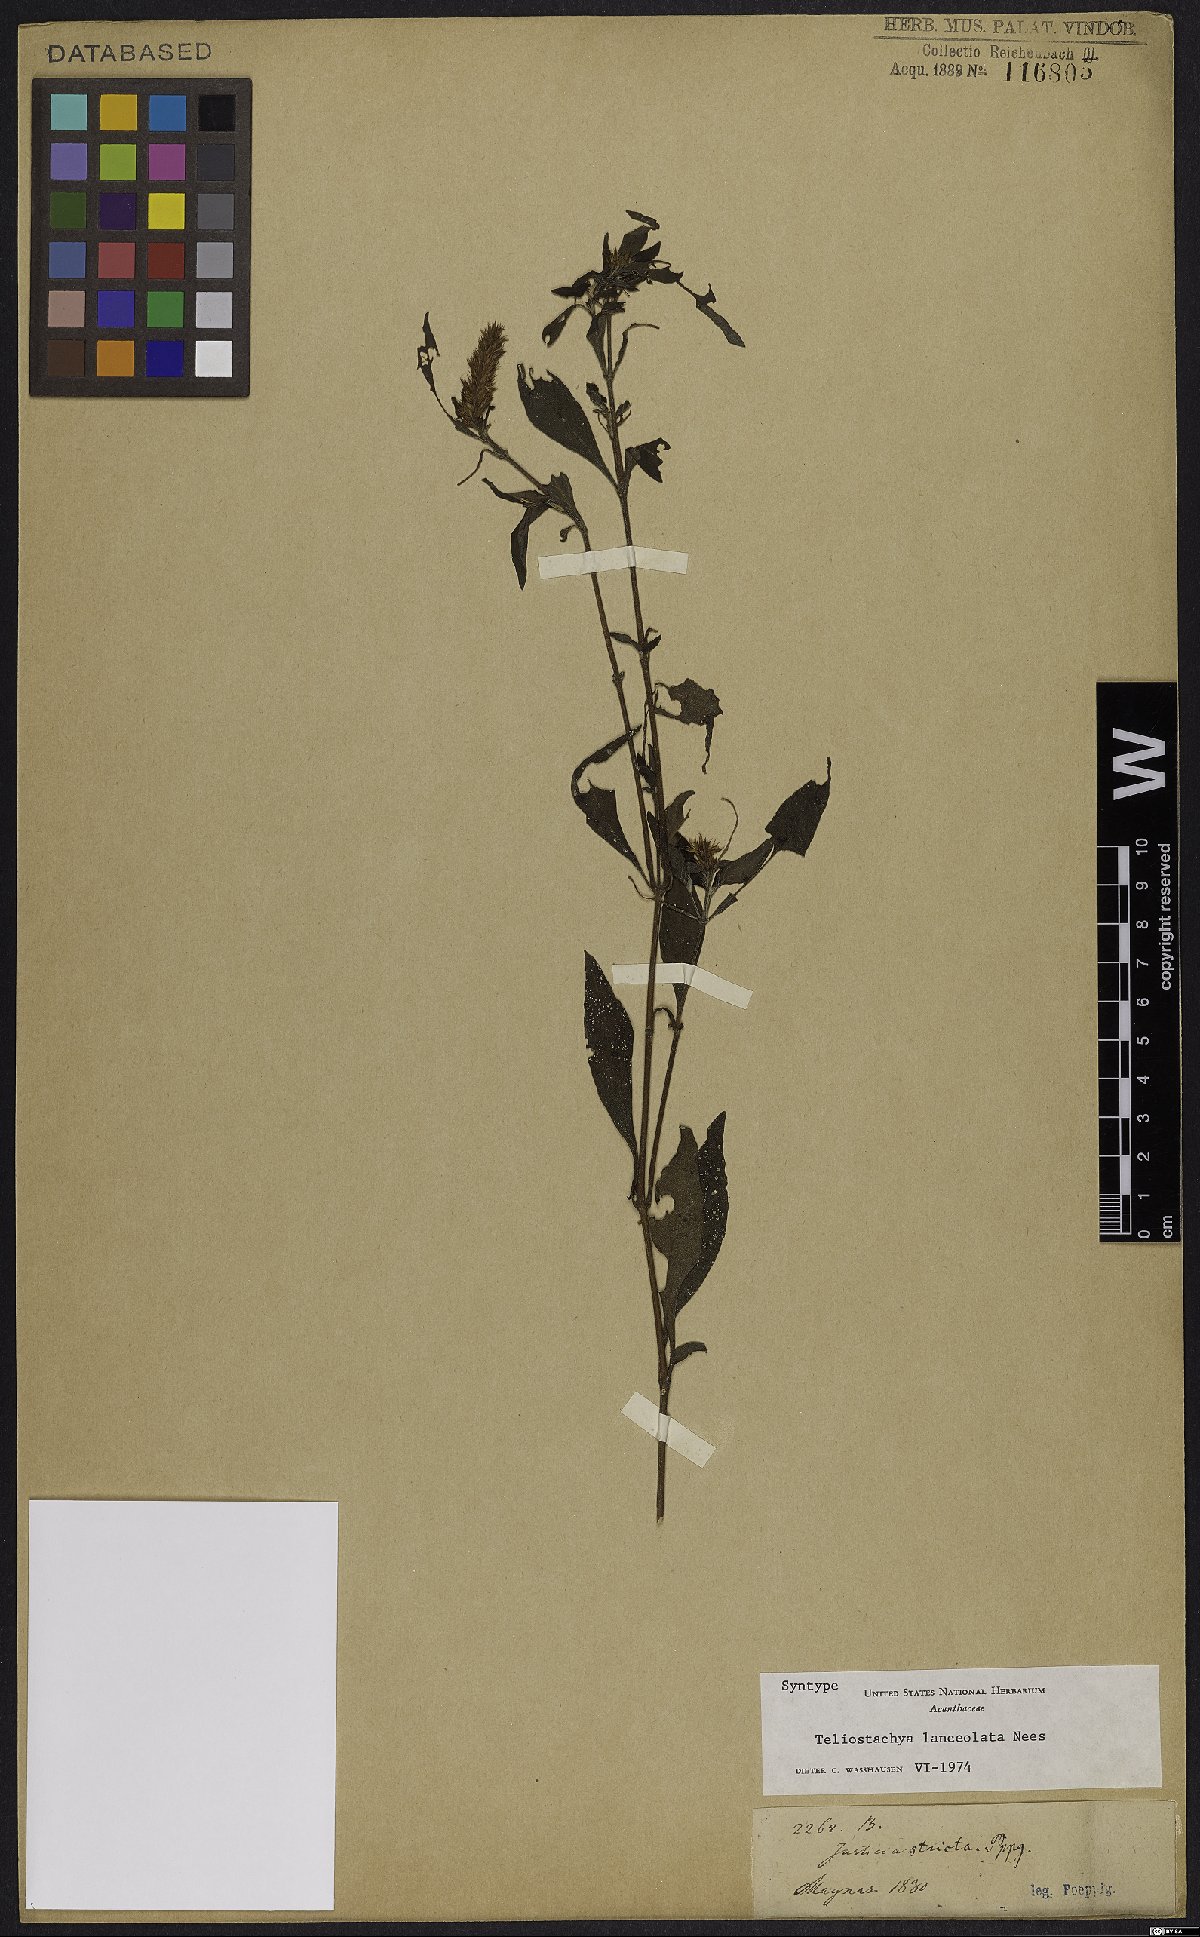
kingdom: Plantae
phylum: Tracheophyta
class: Magnoliopsida
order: Lamiales
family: Acanthaceae
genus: Lepidagathis
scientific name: Lepidagathis alopecuroidea
